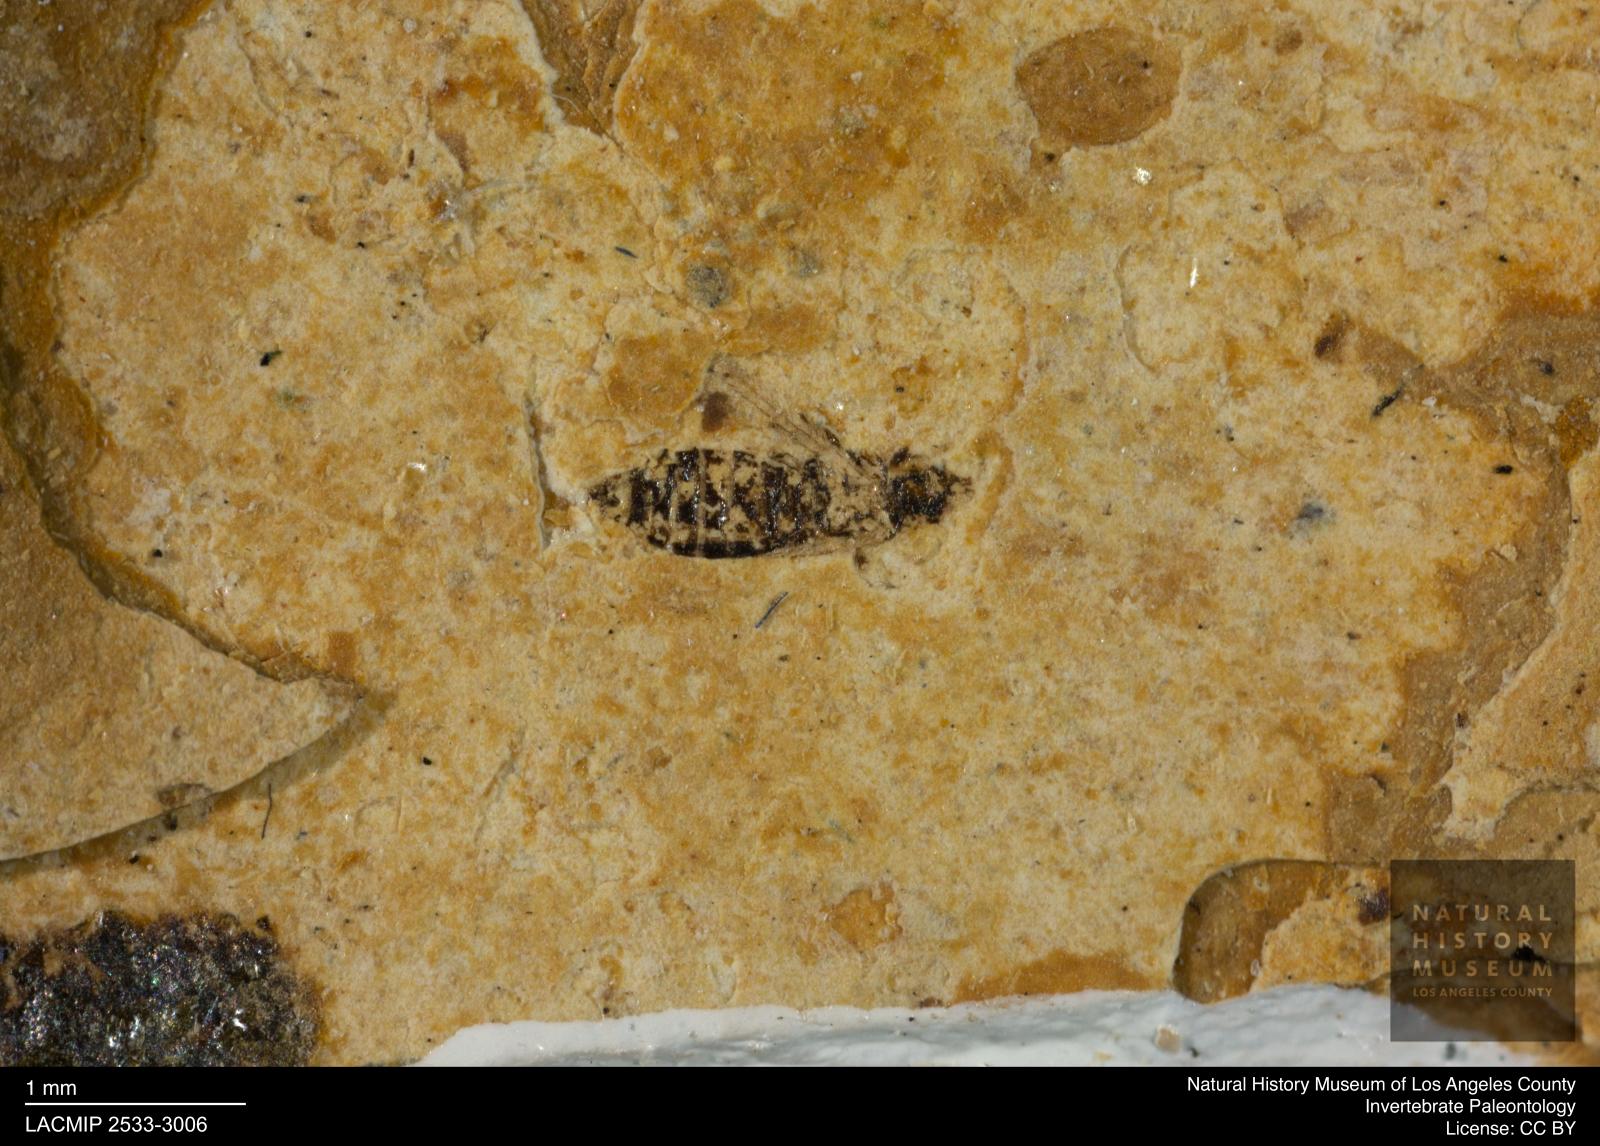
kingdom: Animalia
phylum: Arthropoda
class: Insecta
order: Thysanoptera
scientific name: Thysanoptera
